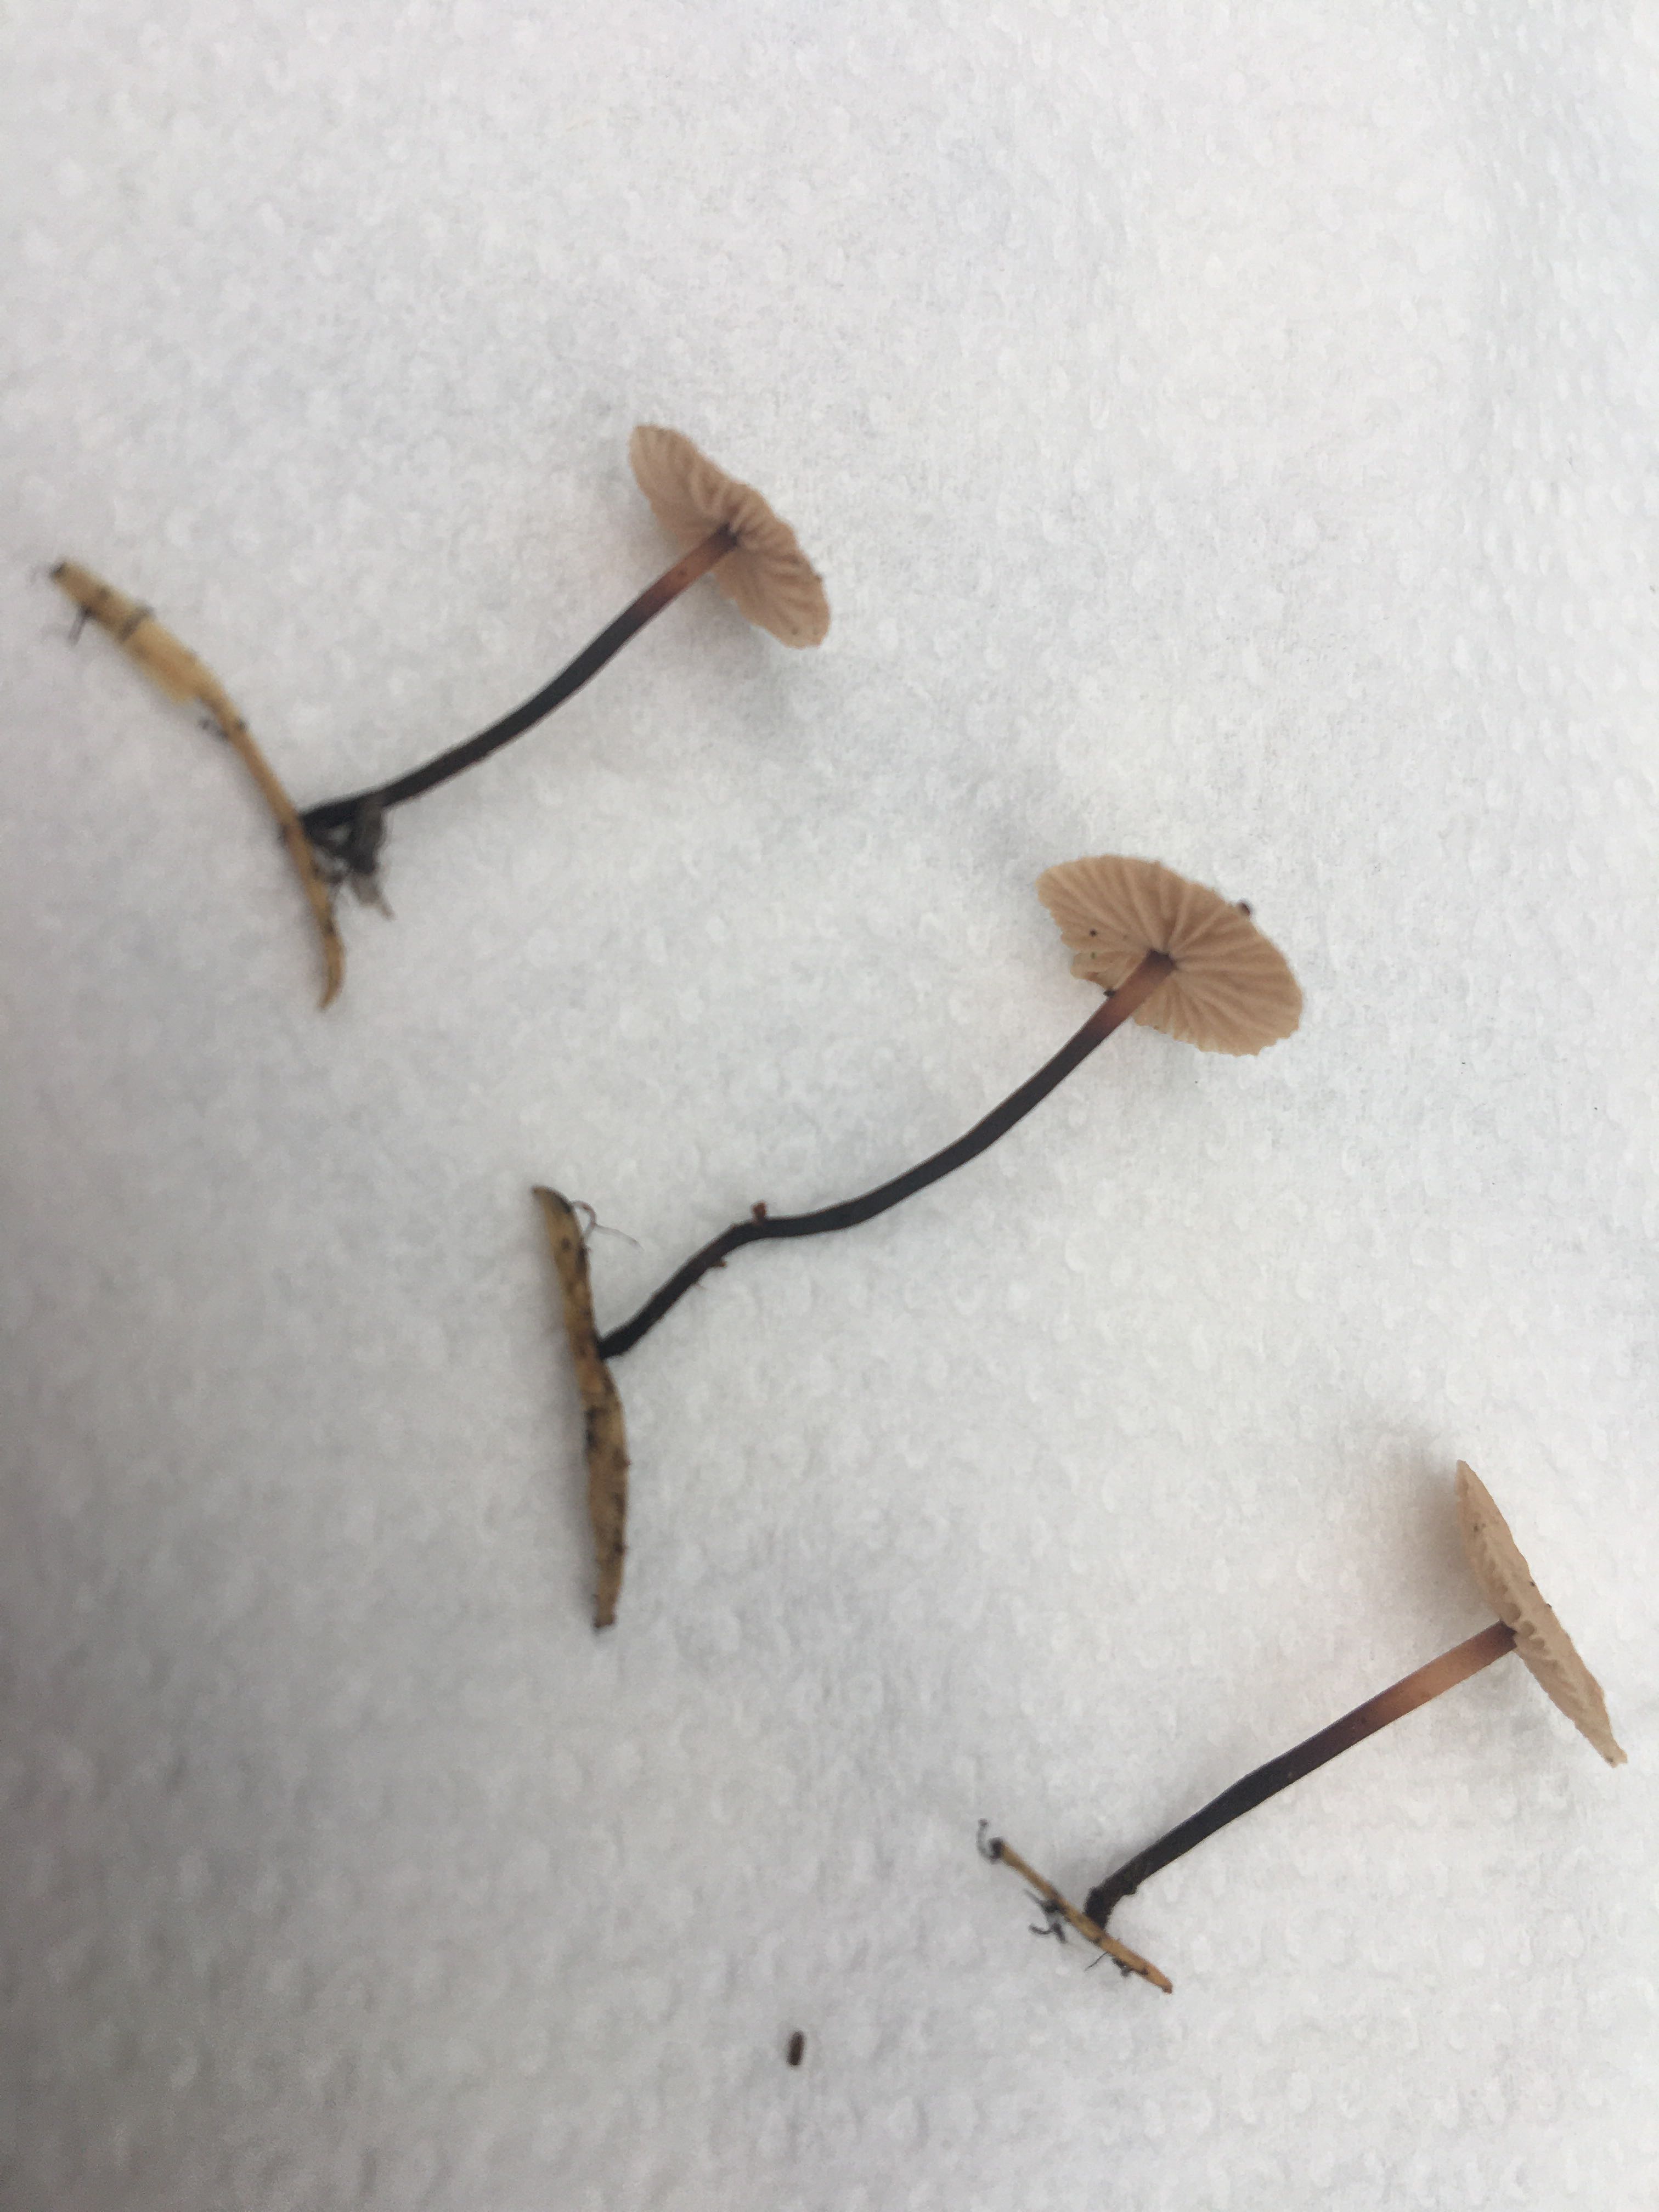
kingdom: Fungi
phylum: Basidiomycota
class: Agaricomycetes
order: Agaricales
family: Omphalotaceae
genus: Paragymnopus
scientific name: Paragymnopus perforans
